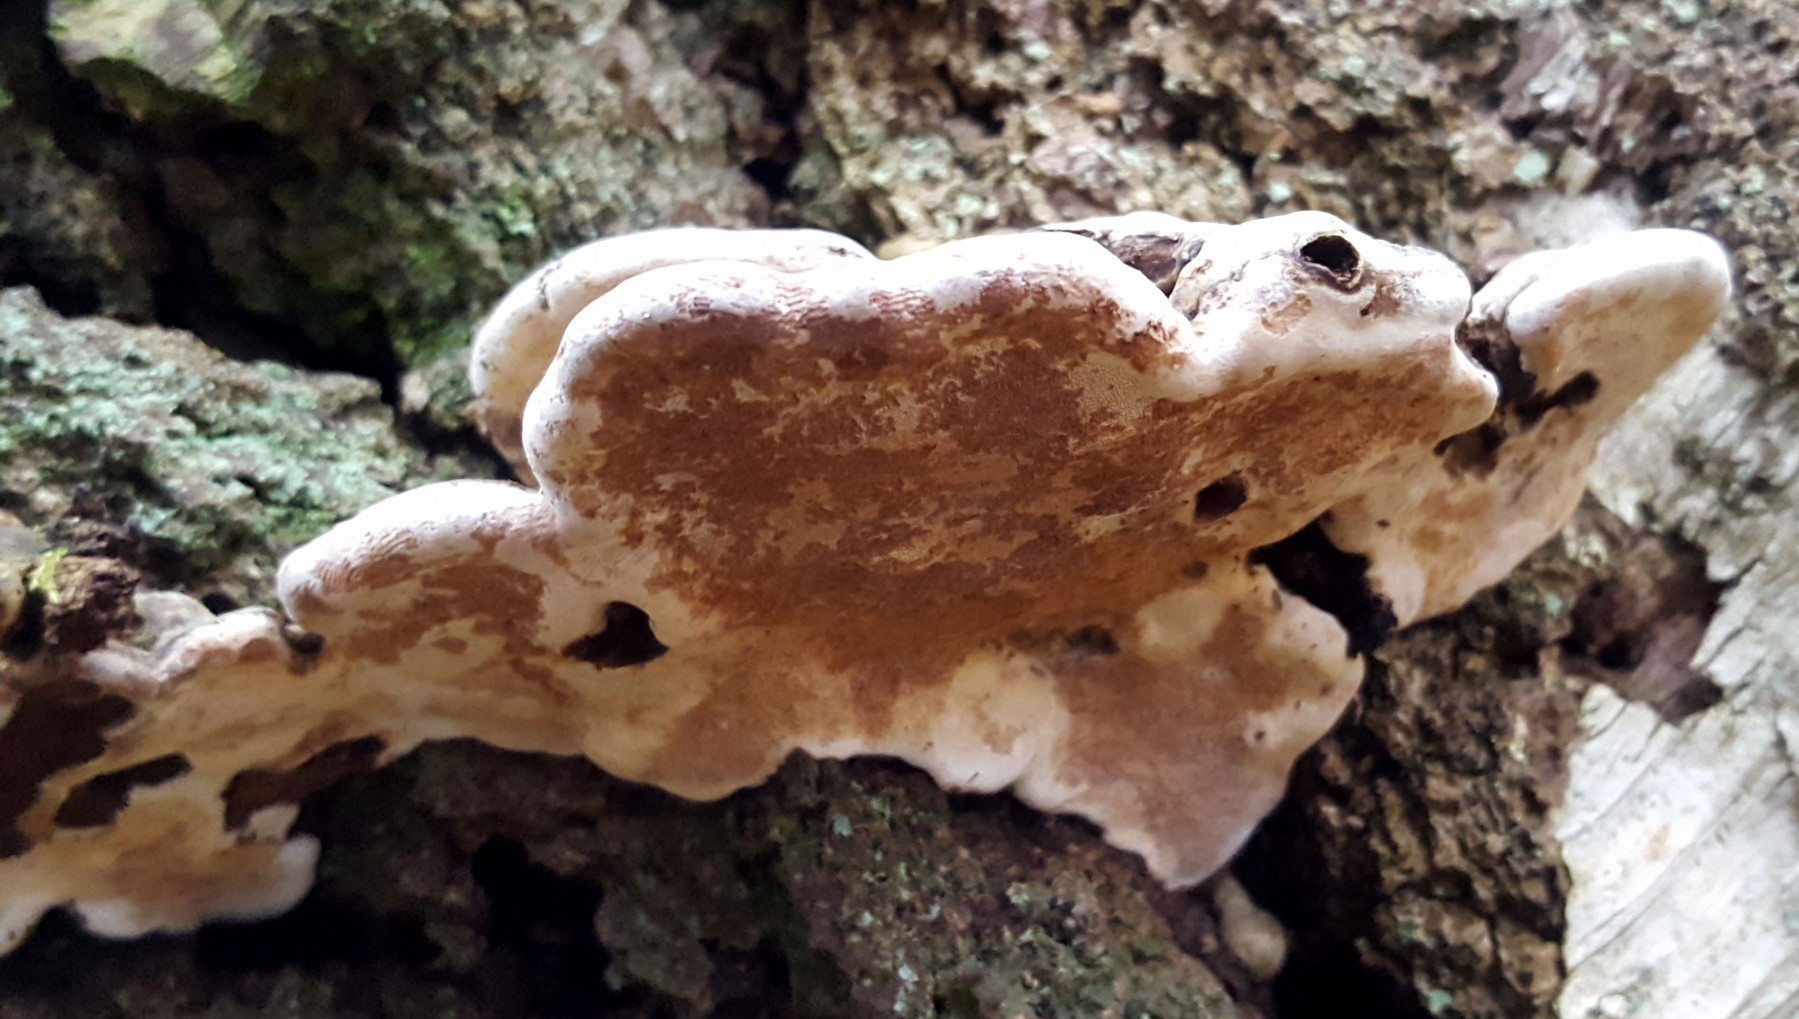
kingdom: Fungi
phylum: Basidiomycota
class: Agaricomycetes
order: Polyporales
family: Polyporaceae
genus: Ganoderma
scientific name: Ganoderma applanatum
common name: flad lakporesvamp
